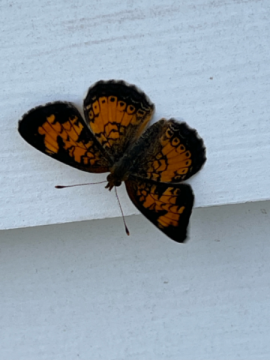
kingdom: Animalia
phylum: Arthropoda
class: Insecta
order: Lepidoptera
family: Nymphalidae
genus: Phyciodes
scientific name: Phyciodes
